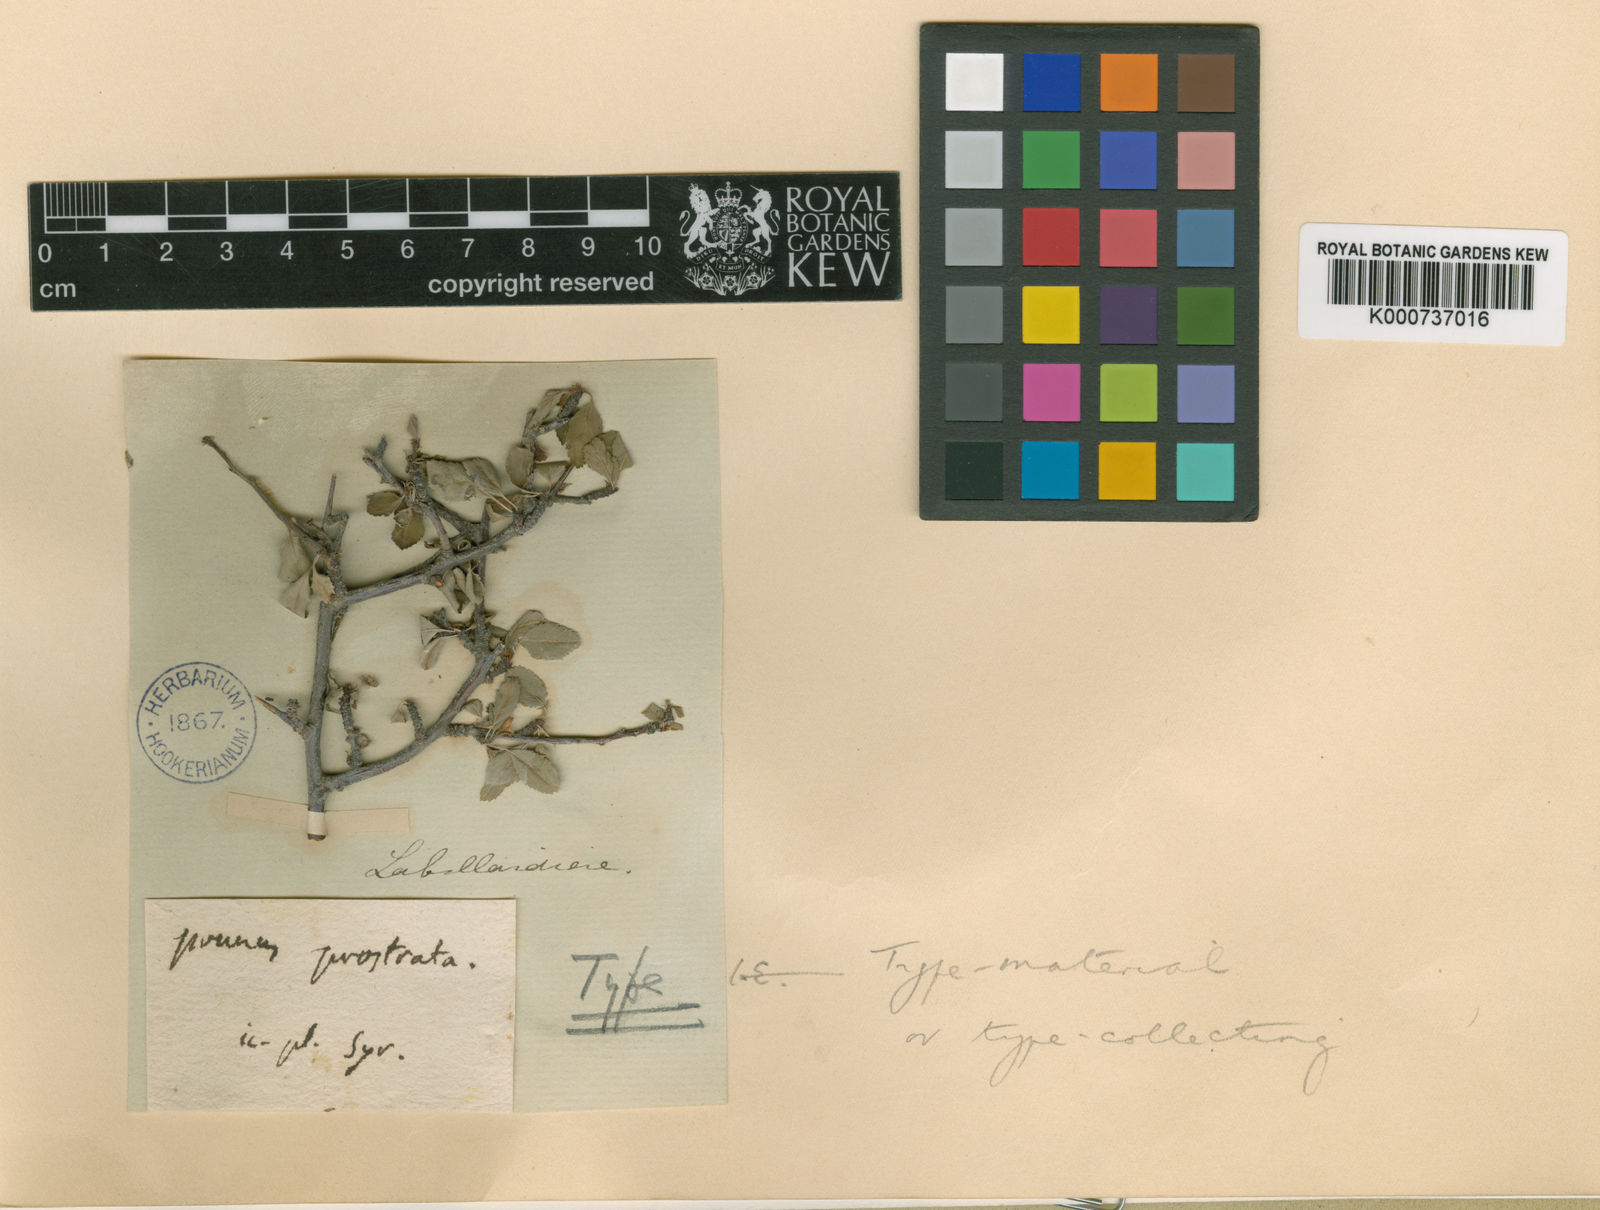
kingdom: Plantae
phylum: Tracheophyta
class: Magnoliopsida
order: Rosales
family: Rosaceae
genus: Prunus
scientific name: Prunus prostrata
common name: Mountain cherry
